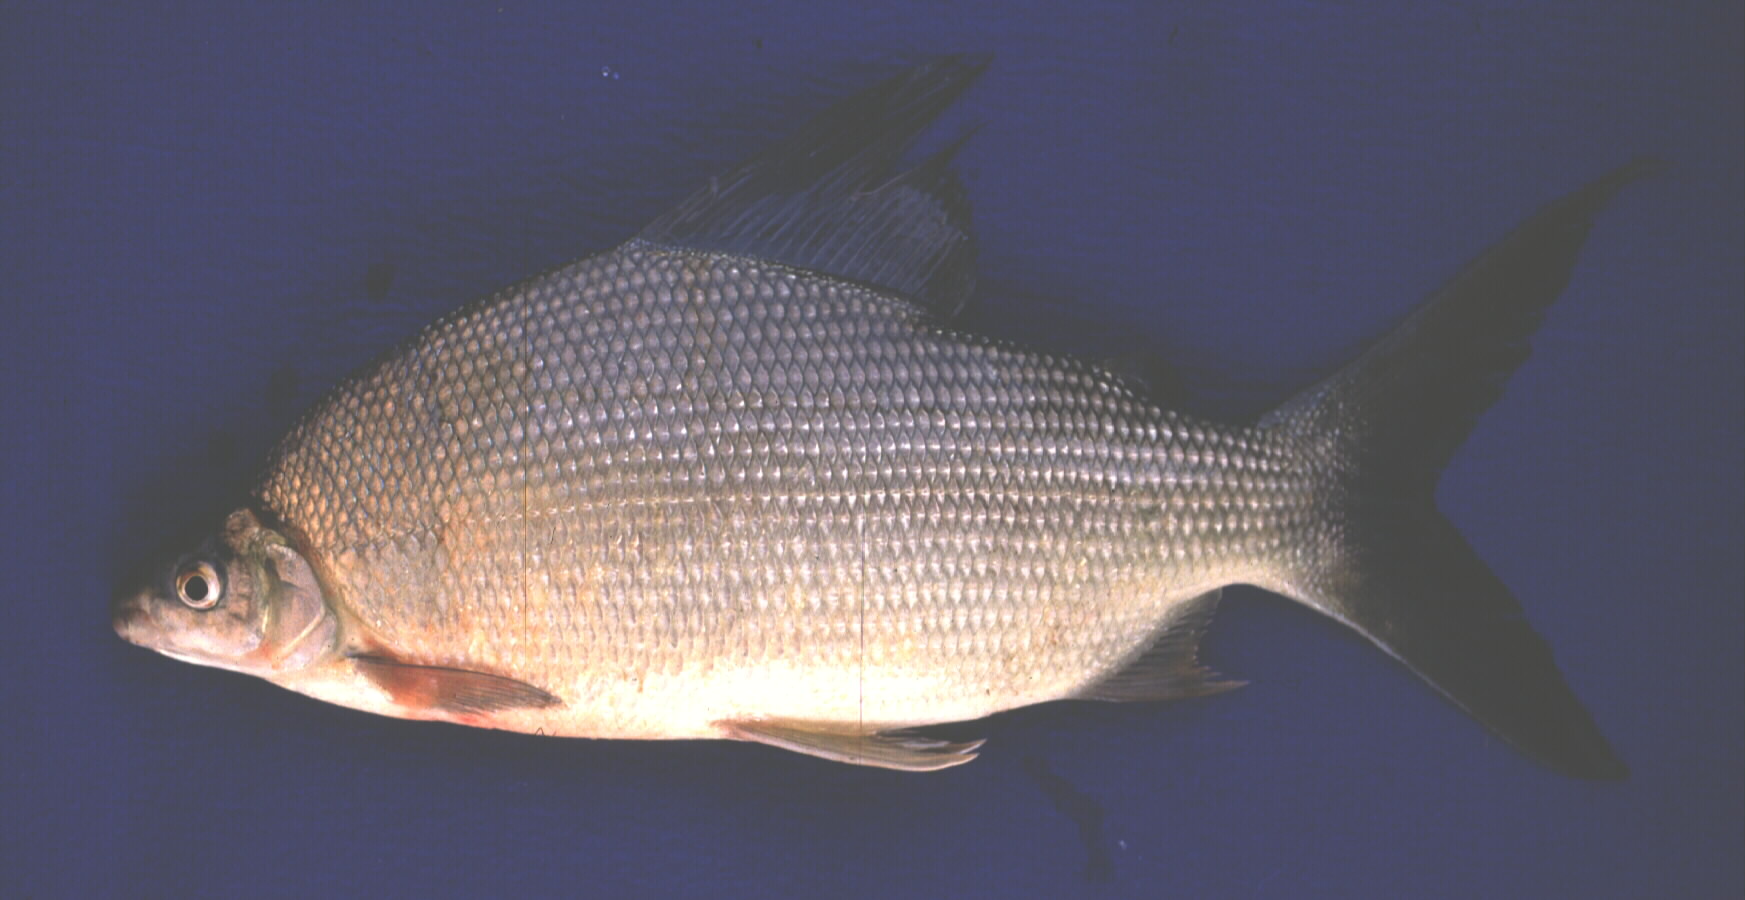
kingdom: Animalia
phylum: Chordata
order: Characiformes
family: Distichodontidae
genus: Distichodus
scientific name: Distichodus schenga
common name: Chessa
